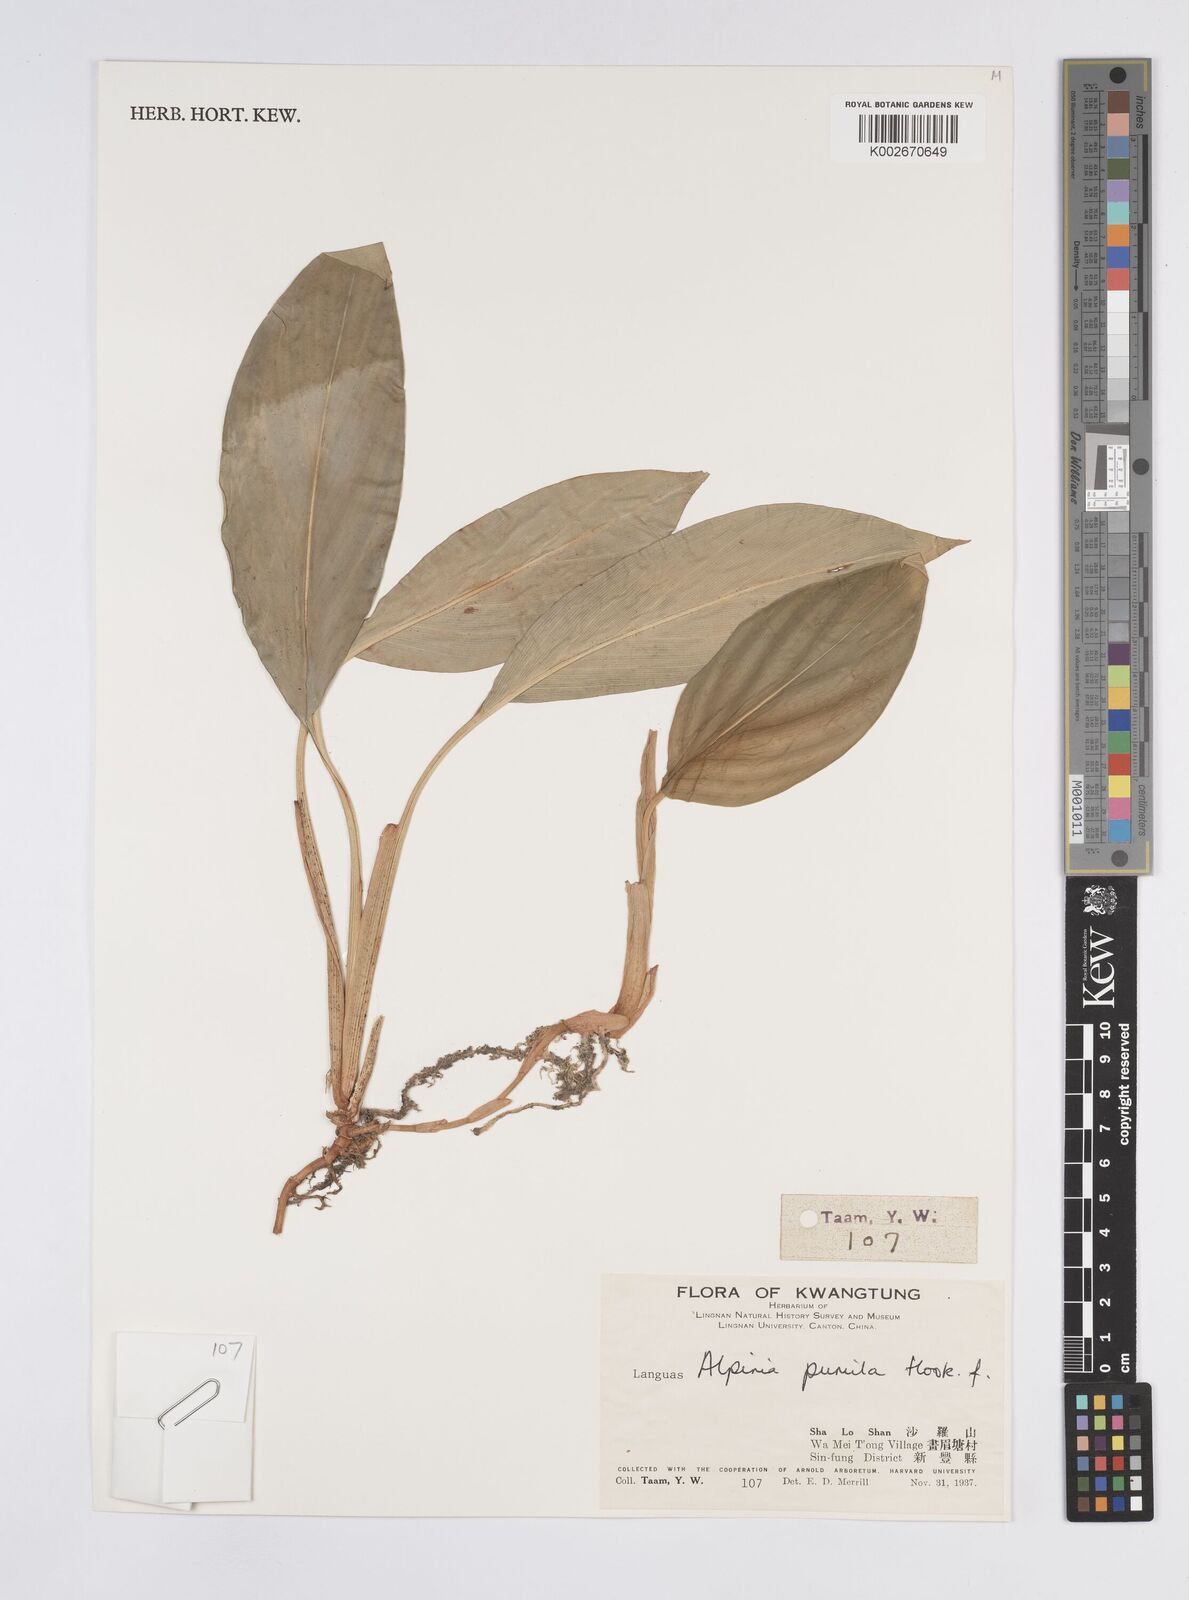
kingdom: Plantae
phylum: Tracheophyta
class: Liliopsida
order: Zingiberales
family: Zingiberaceae
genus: Alpinia
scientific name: Alpinia pumila
